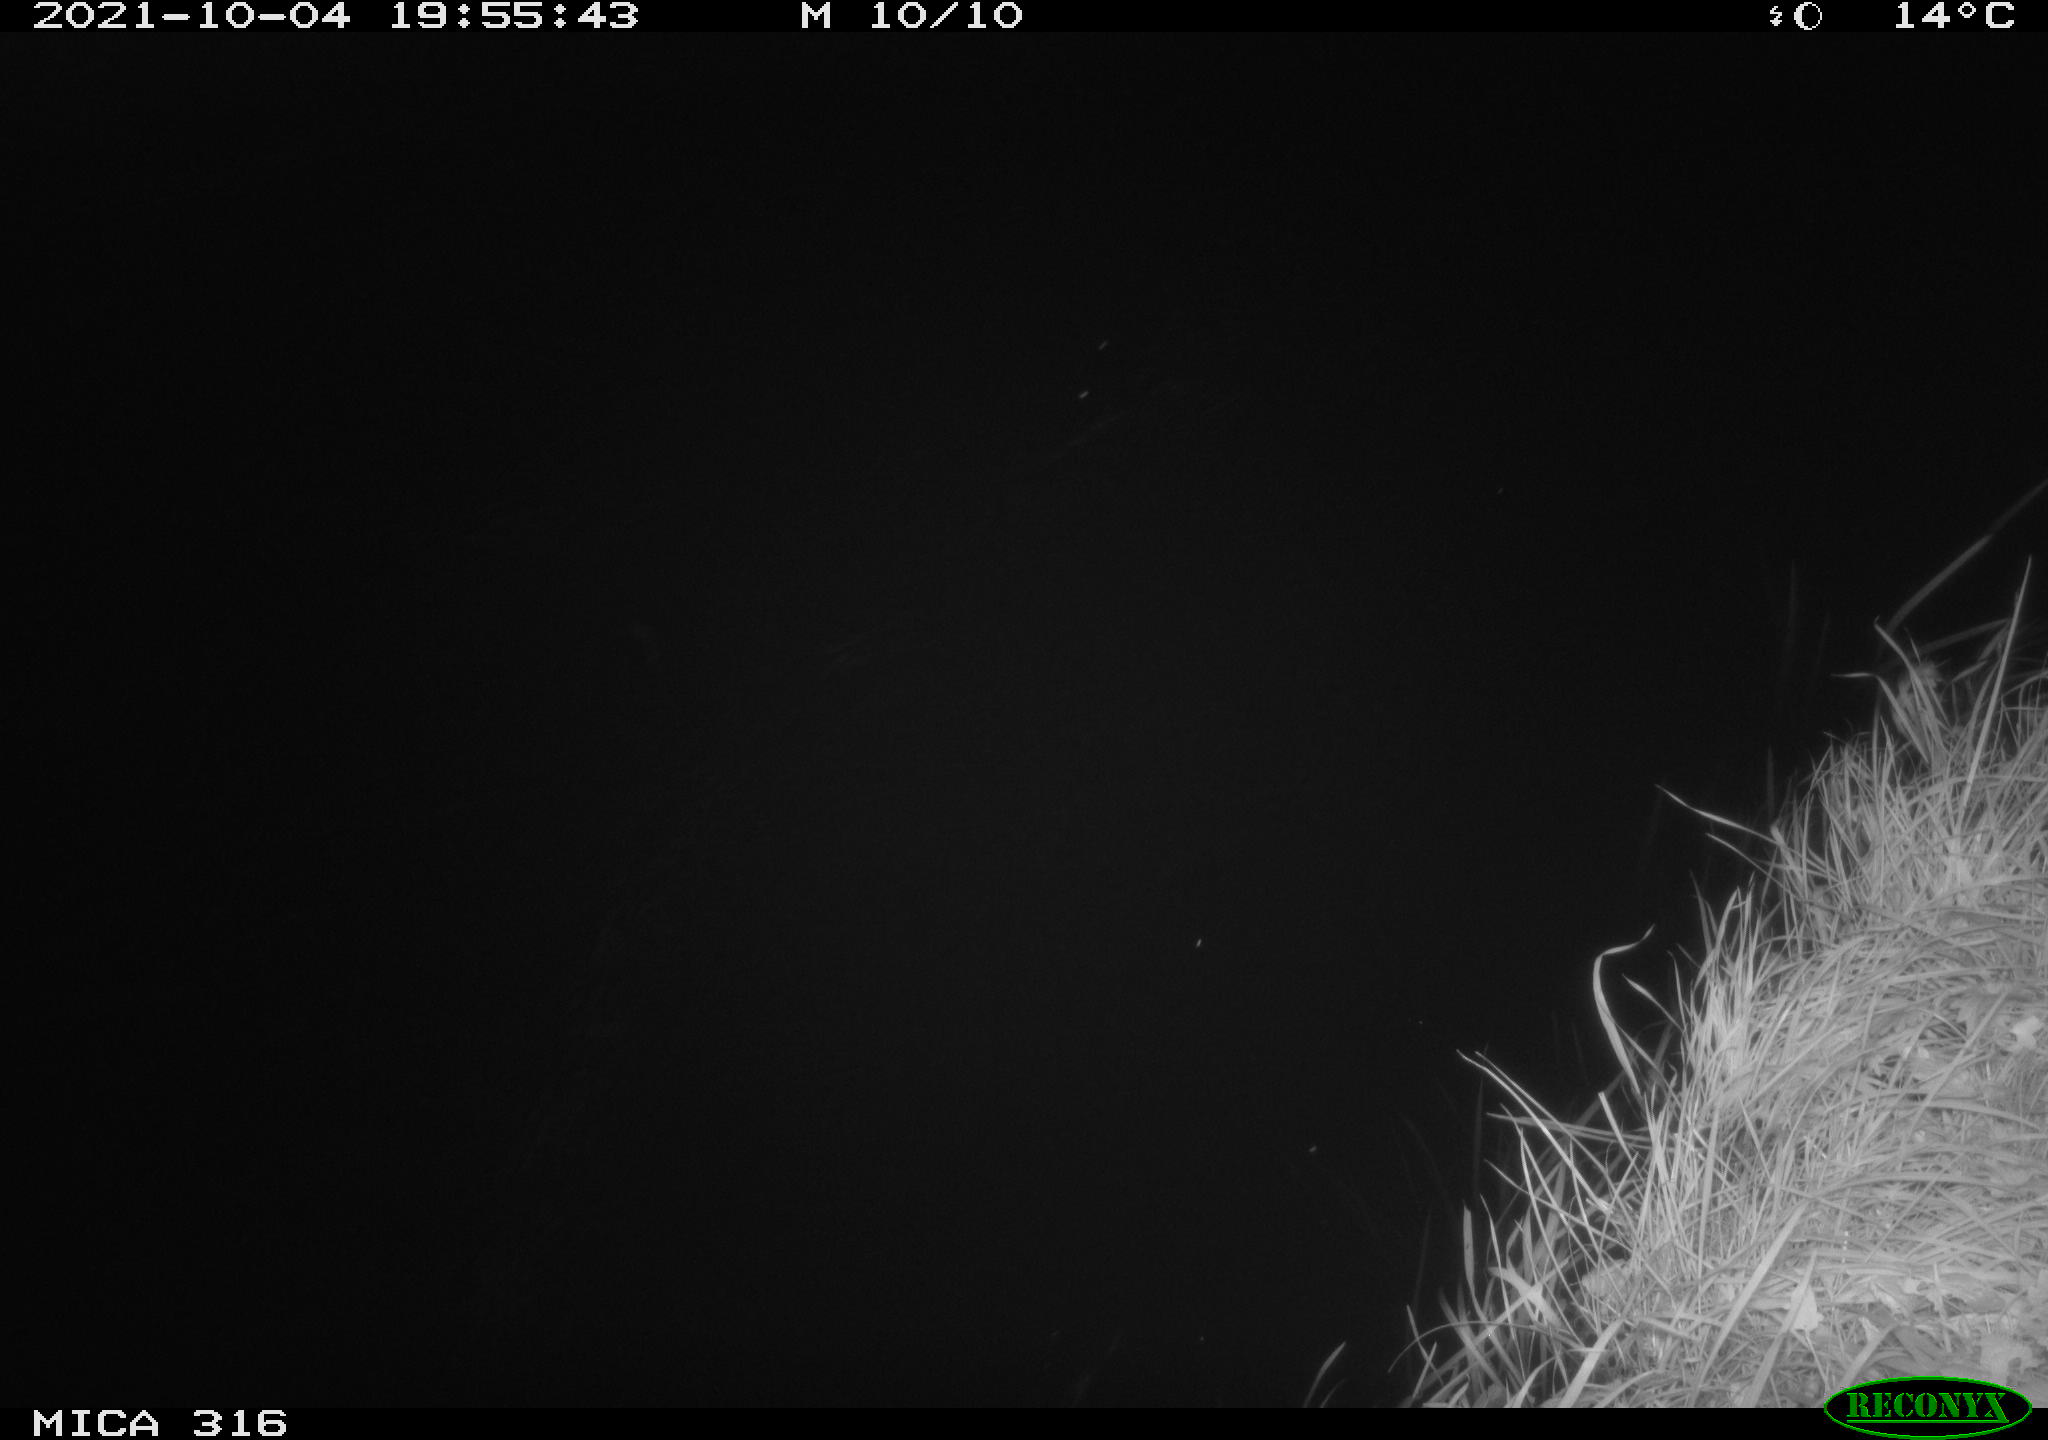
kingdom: Animalia
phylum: Chordata
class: Mammalia
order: Rodentia
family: Muridae
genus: Rattus
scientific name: Rattus norvegicus
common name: Brown rat
